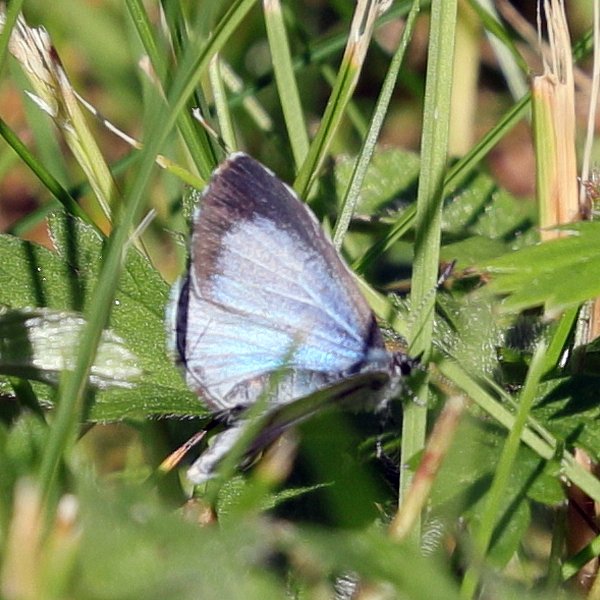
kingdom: Animalia
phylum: Arthropoda
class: Insecta
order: Lepidoptera
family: Lycaenidae
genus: Celastrina
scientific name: Celastrina lucia
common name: Northern Spring Azure
